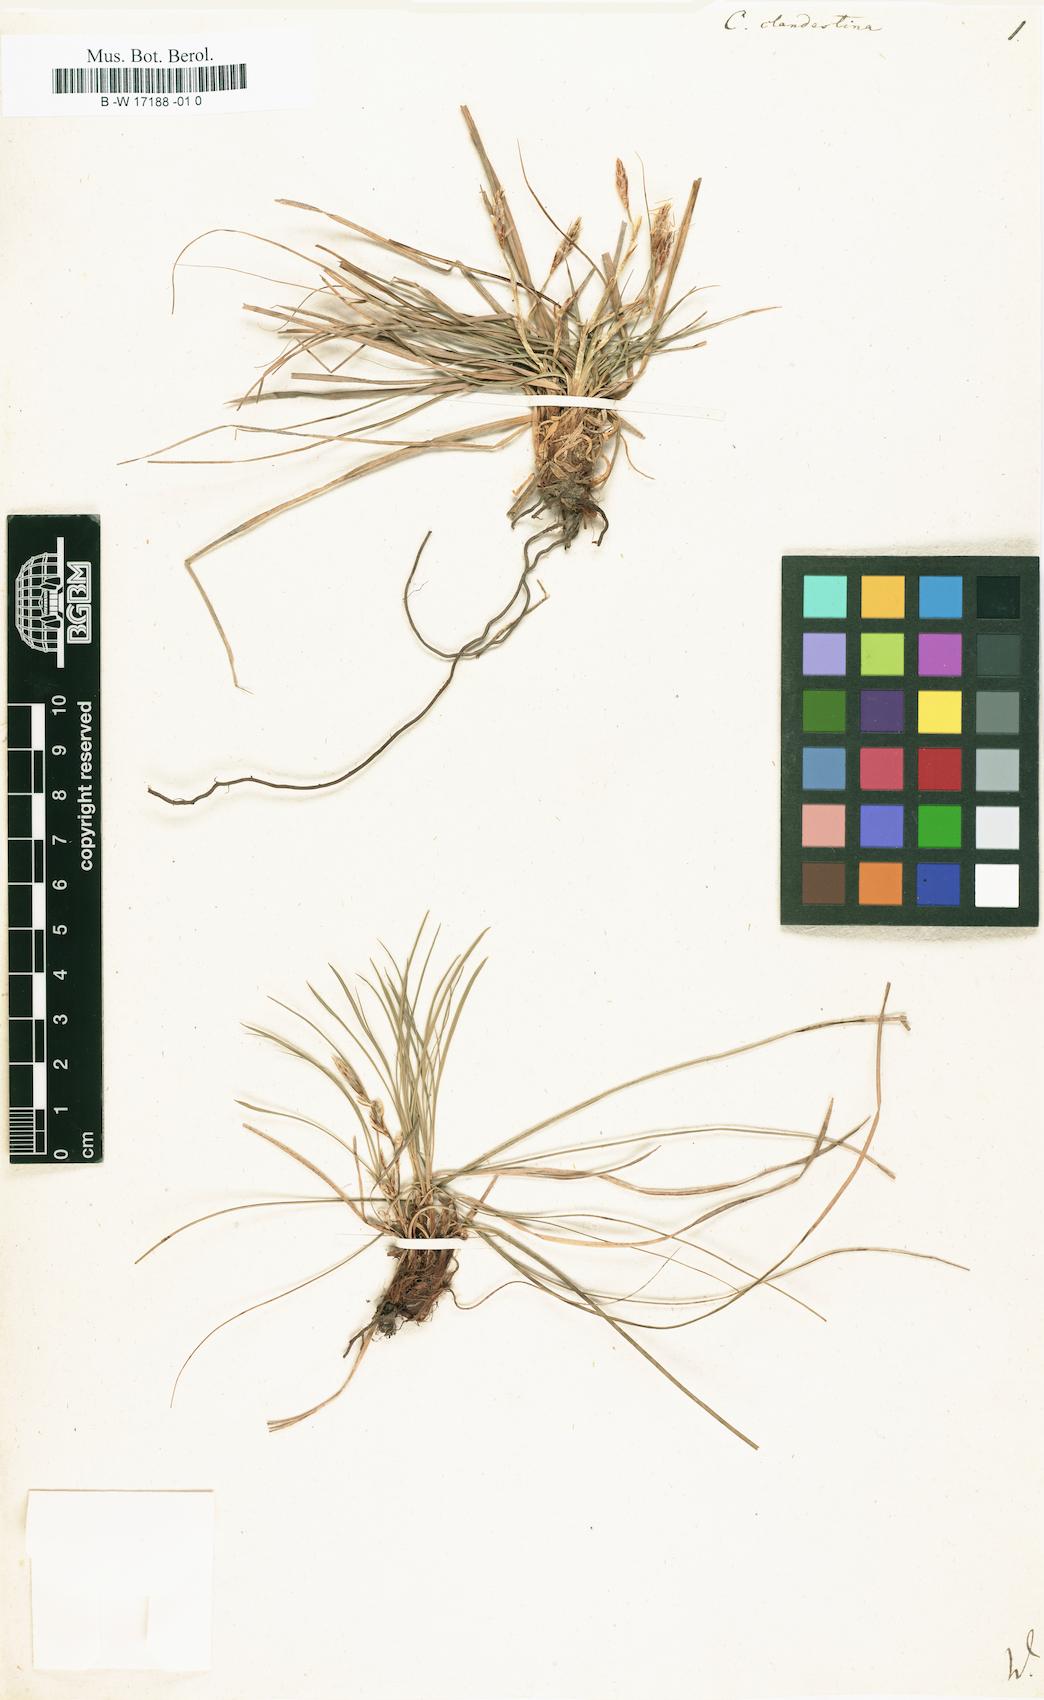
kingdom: Plantae
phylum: Tracheophyta
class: Liliopsida
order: Poales
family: Cyperaceae
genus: Carex
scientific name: Carex humilis
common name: Dwarf sedge
